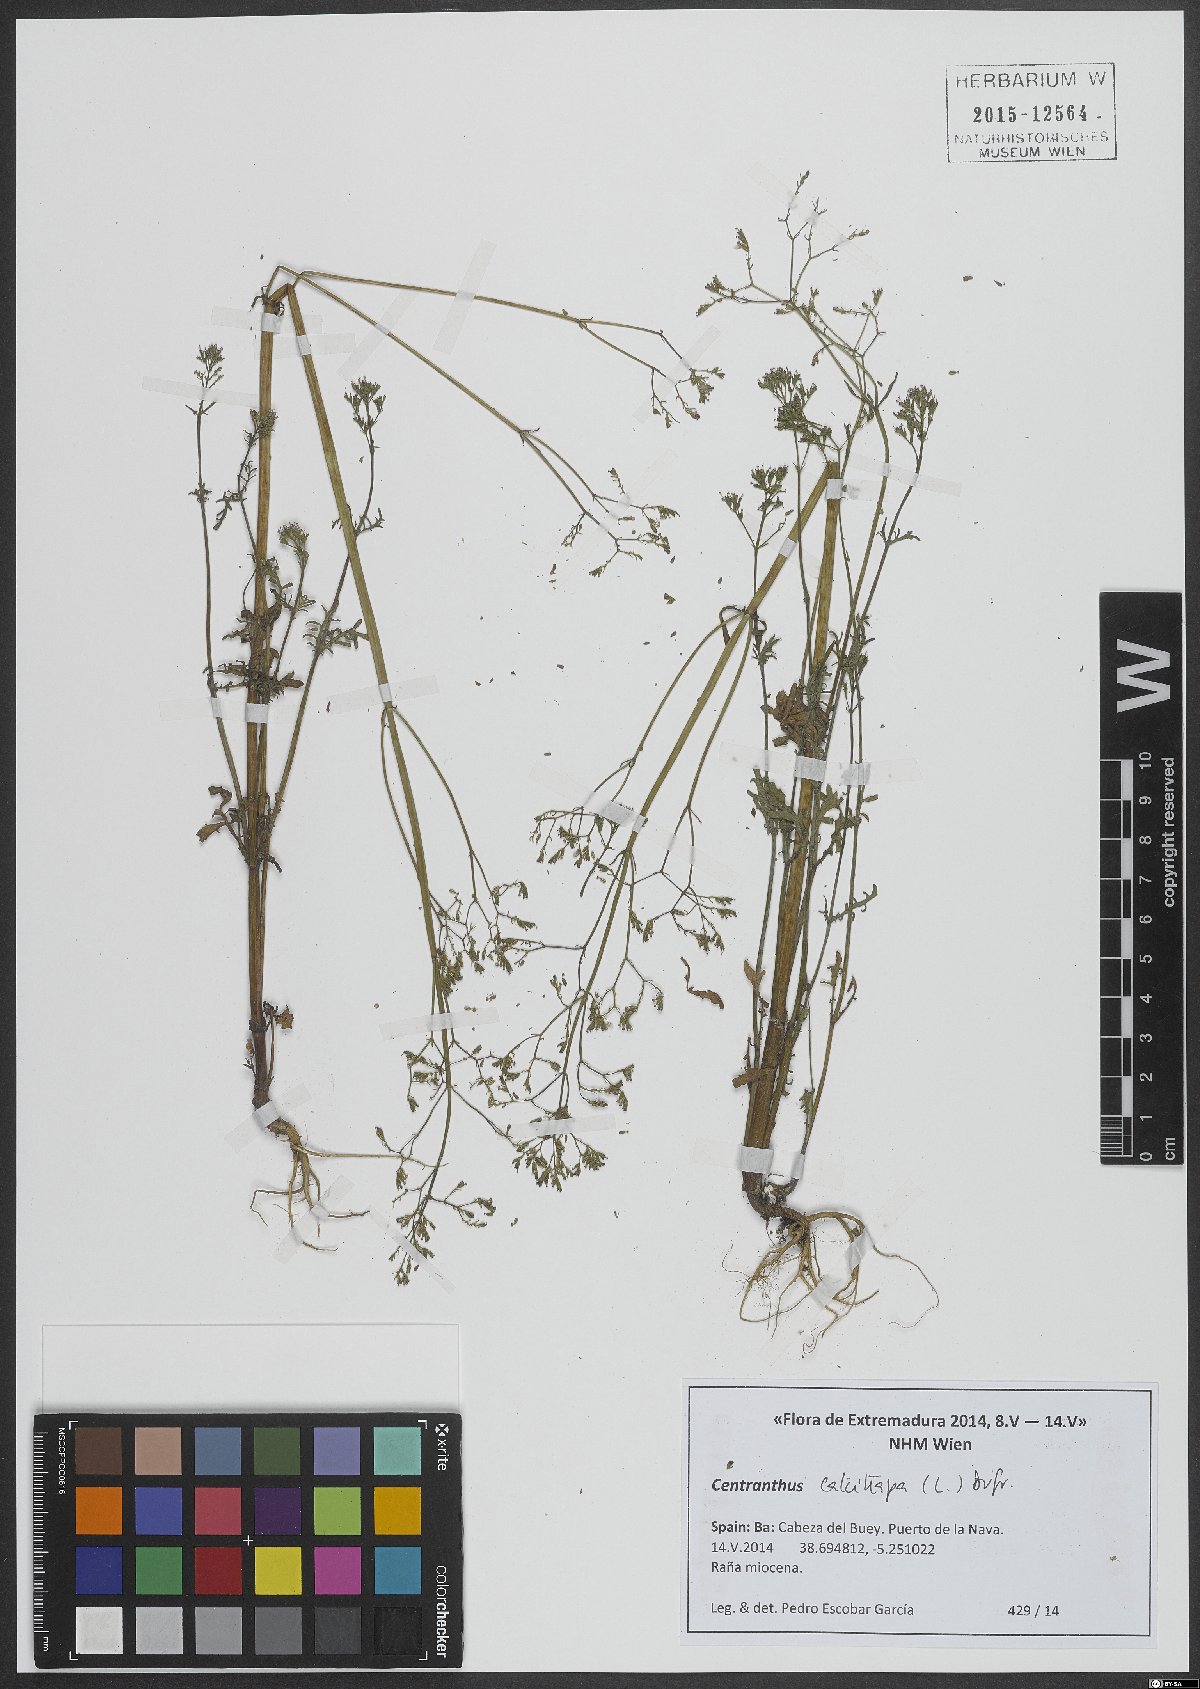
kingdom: Plantae
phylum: Tracheophyta
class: Magnoliopsida
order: Dipsacales
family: Caprifoliaceae
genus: Centranthus
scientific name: Centranthus calcitrapae
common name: Annual valerian
